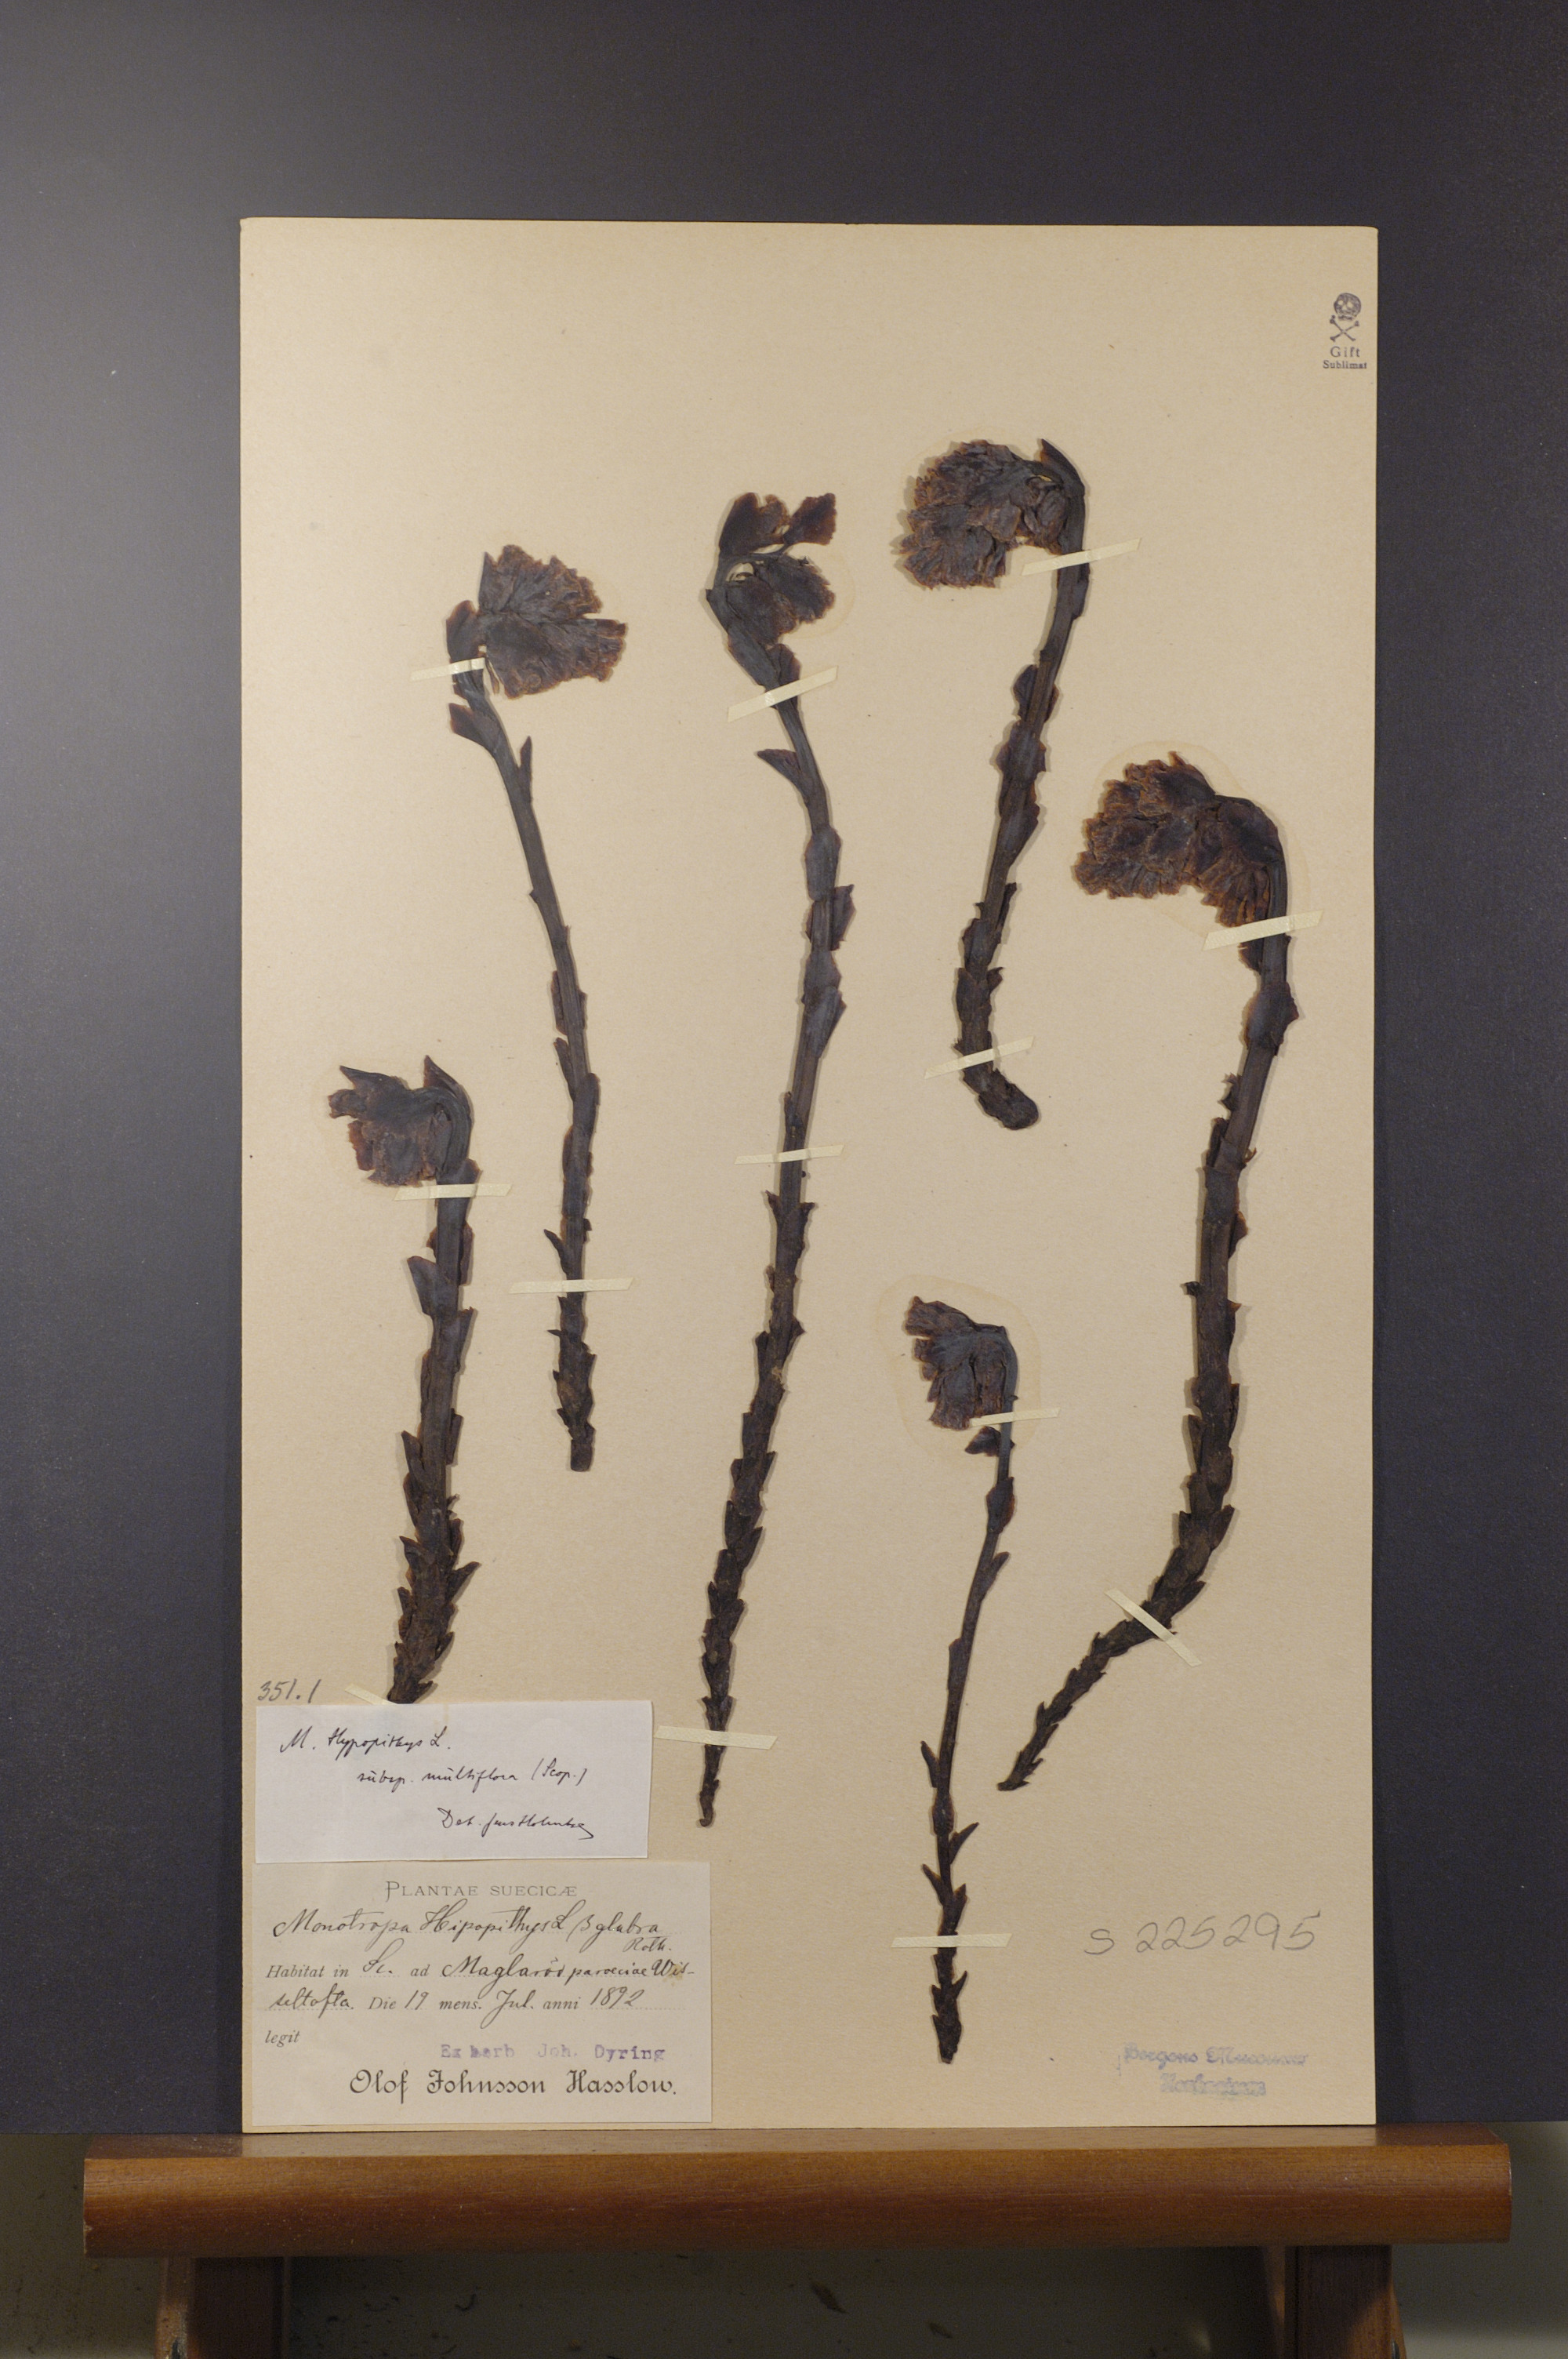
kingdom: Plantae
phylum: Tracheophyta
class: Magnoliopsida
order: Ericales
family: Ericaceae
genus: Hypopitys
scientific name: Hypopitys monotropa
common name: Yellow bird's-nest
